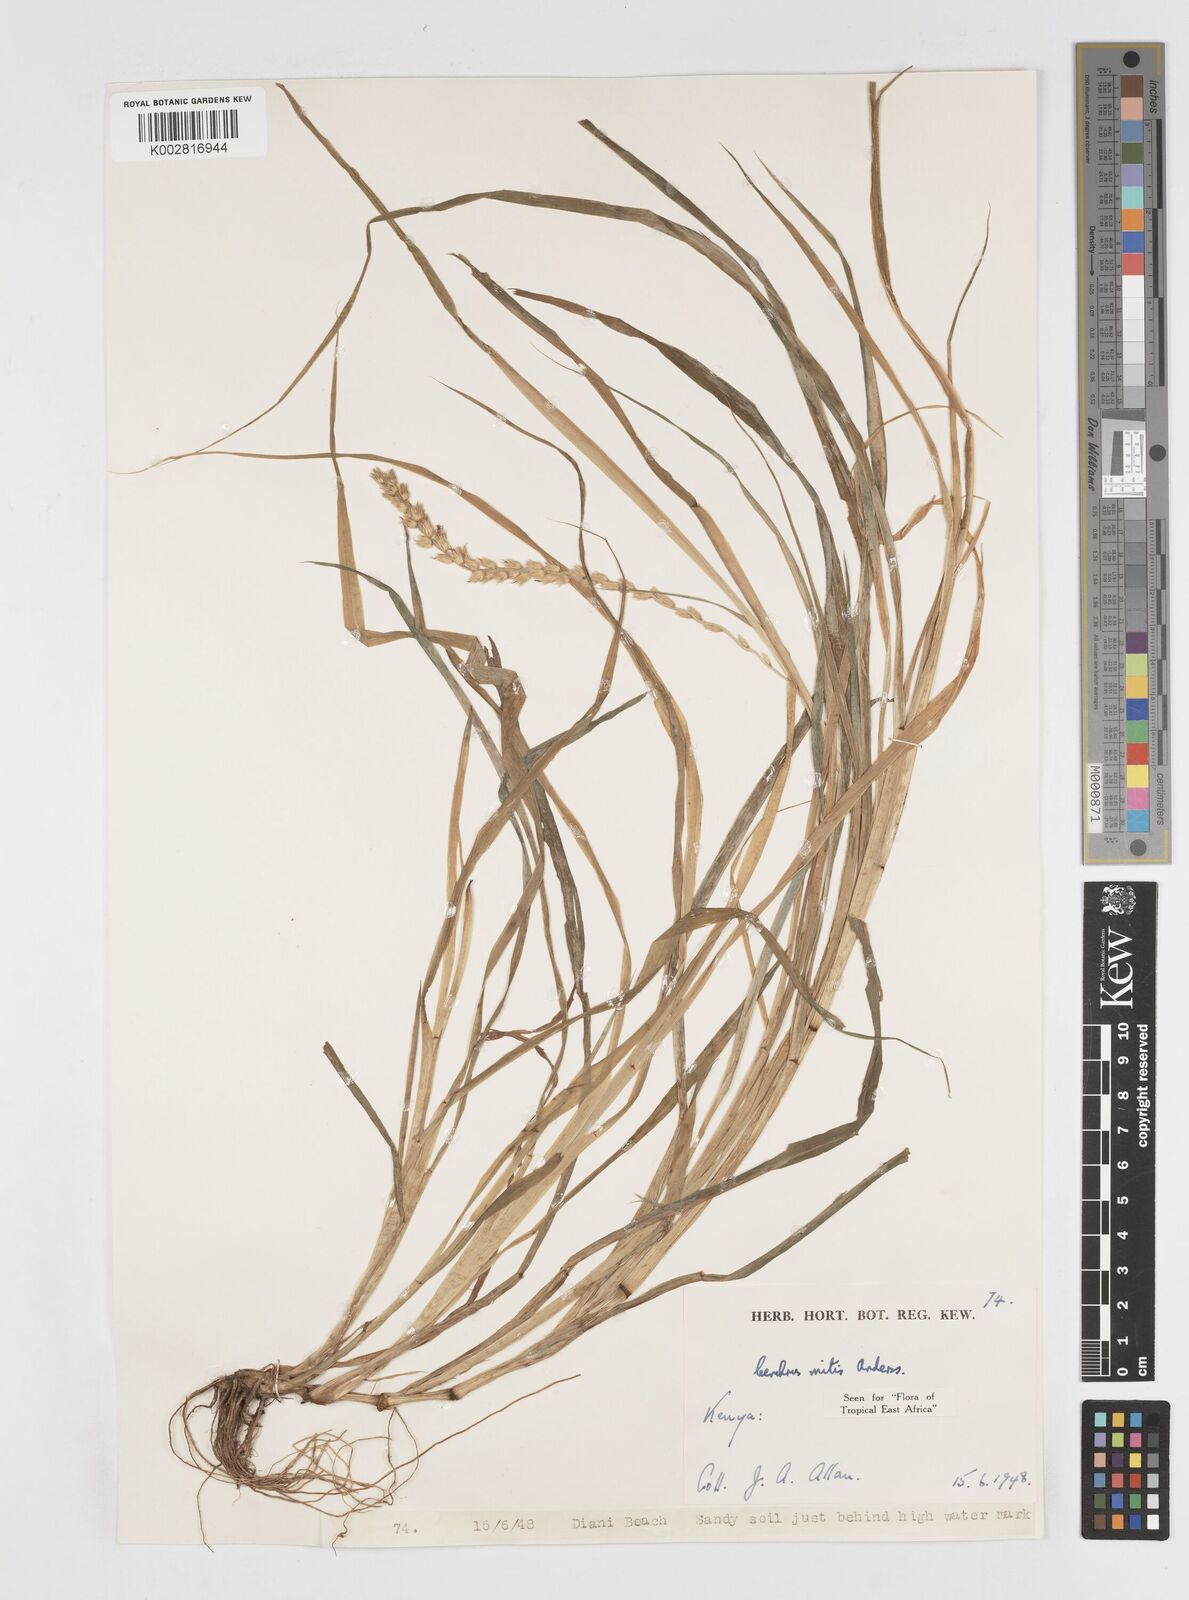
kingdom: Plantae
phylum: Tracheophyta
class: Liliopsida
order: Poales
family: Poaceae
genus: Cenchrus
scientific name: Cenchrus mitis
